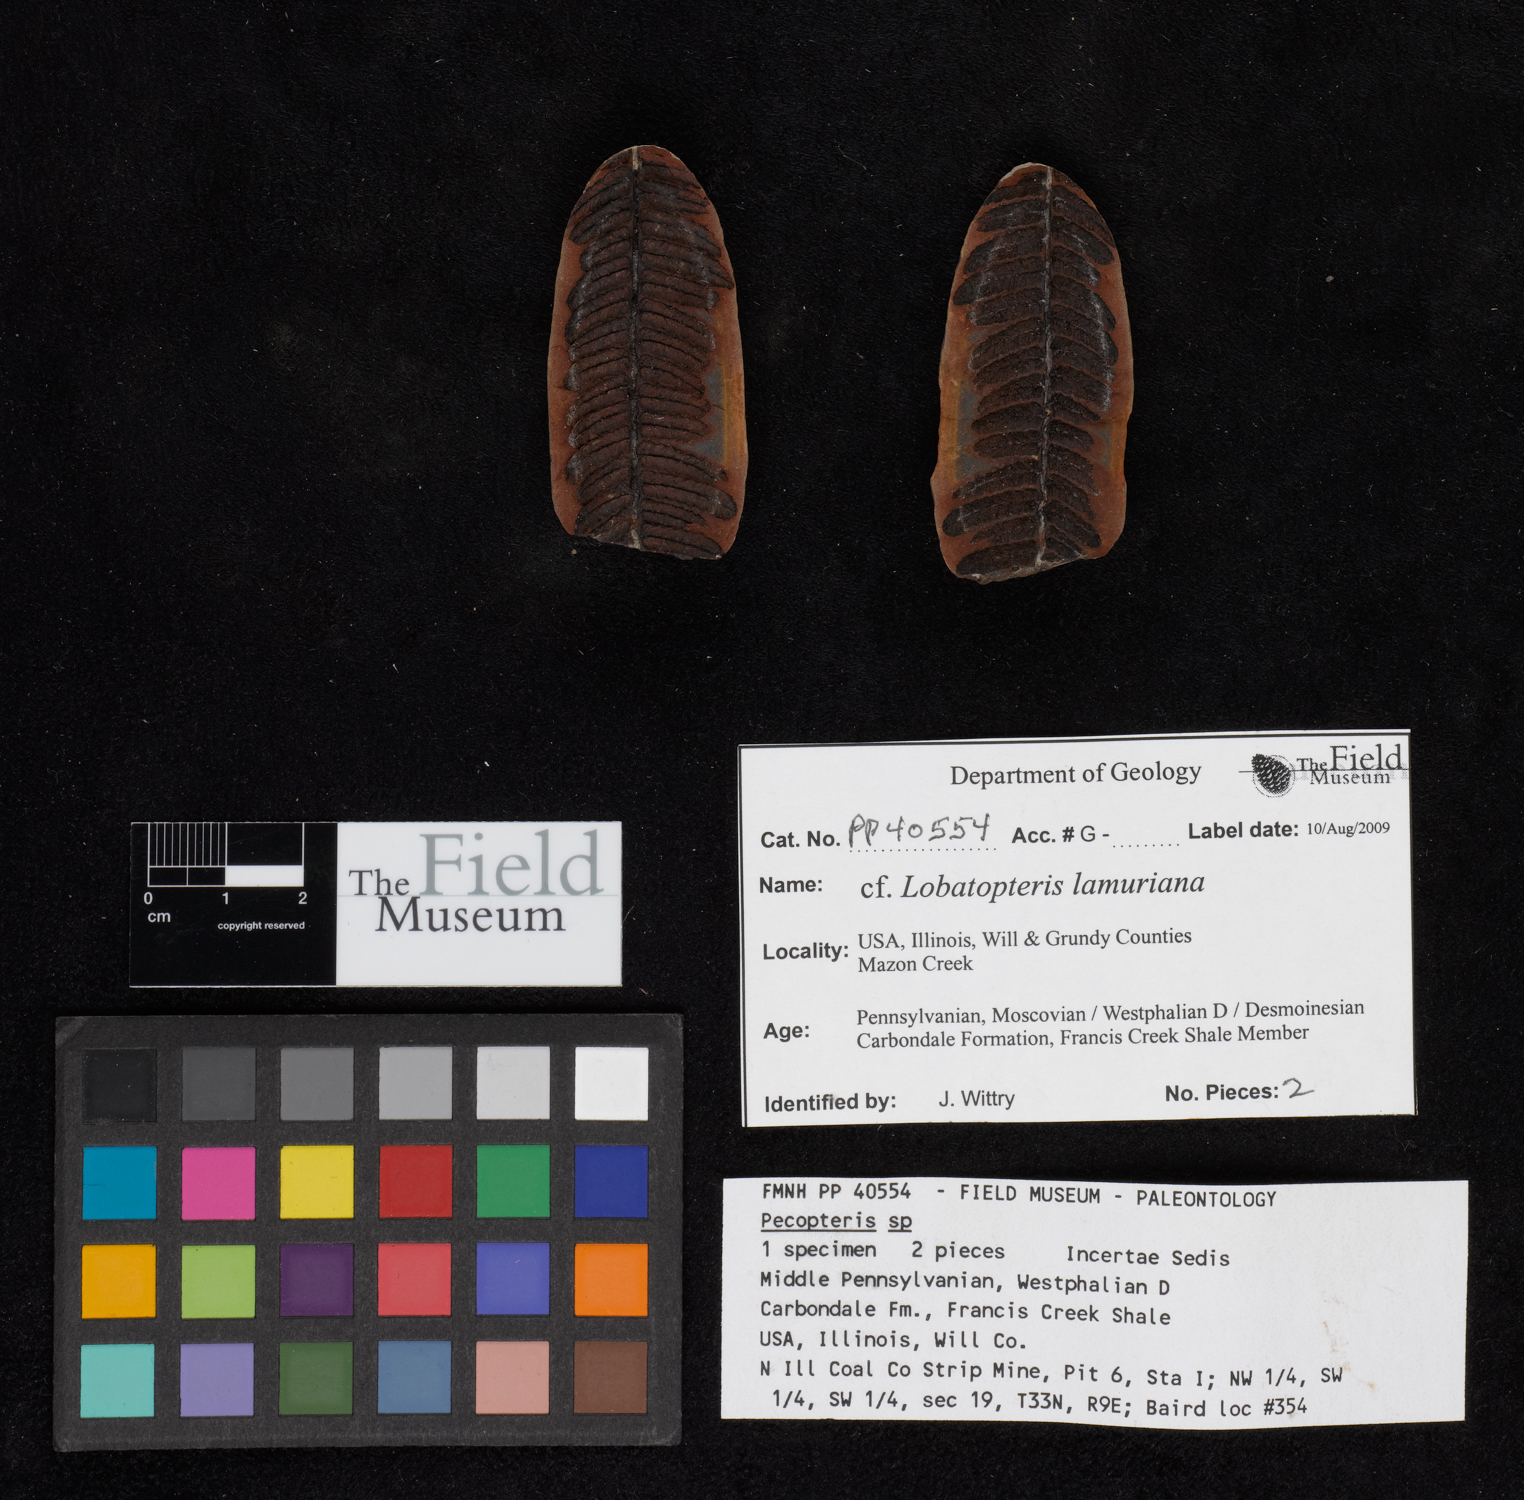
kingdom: Plantae
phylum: Tracheophyta
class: Polypodiopsida
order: Marattiales
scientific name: Marattiales
